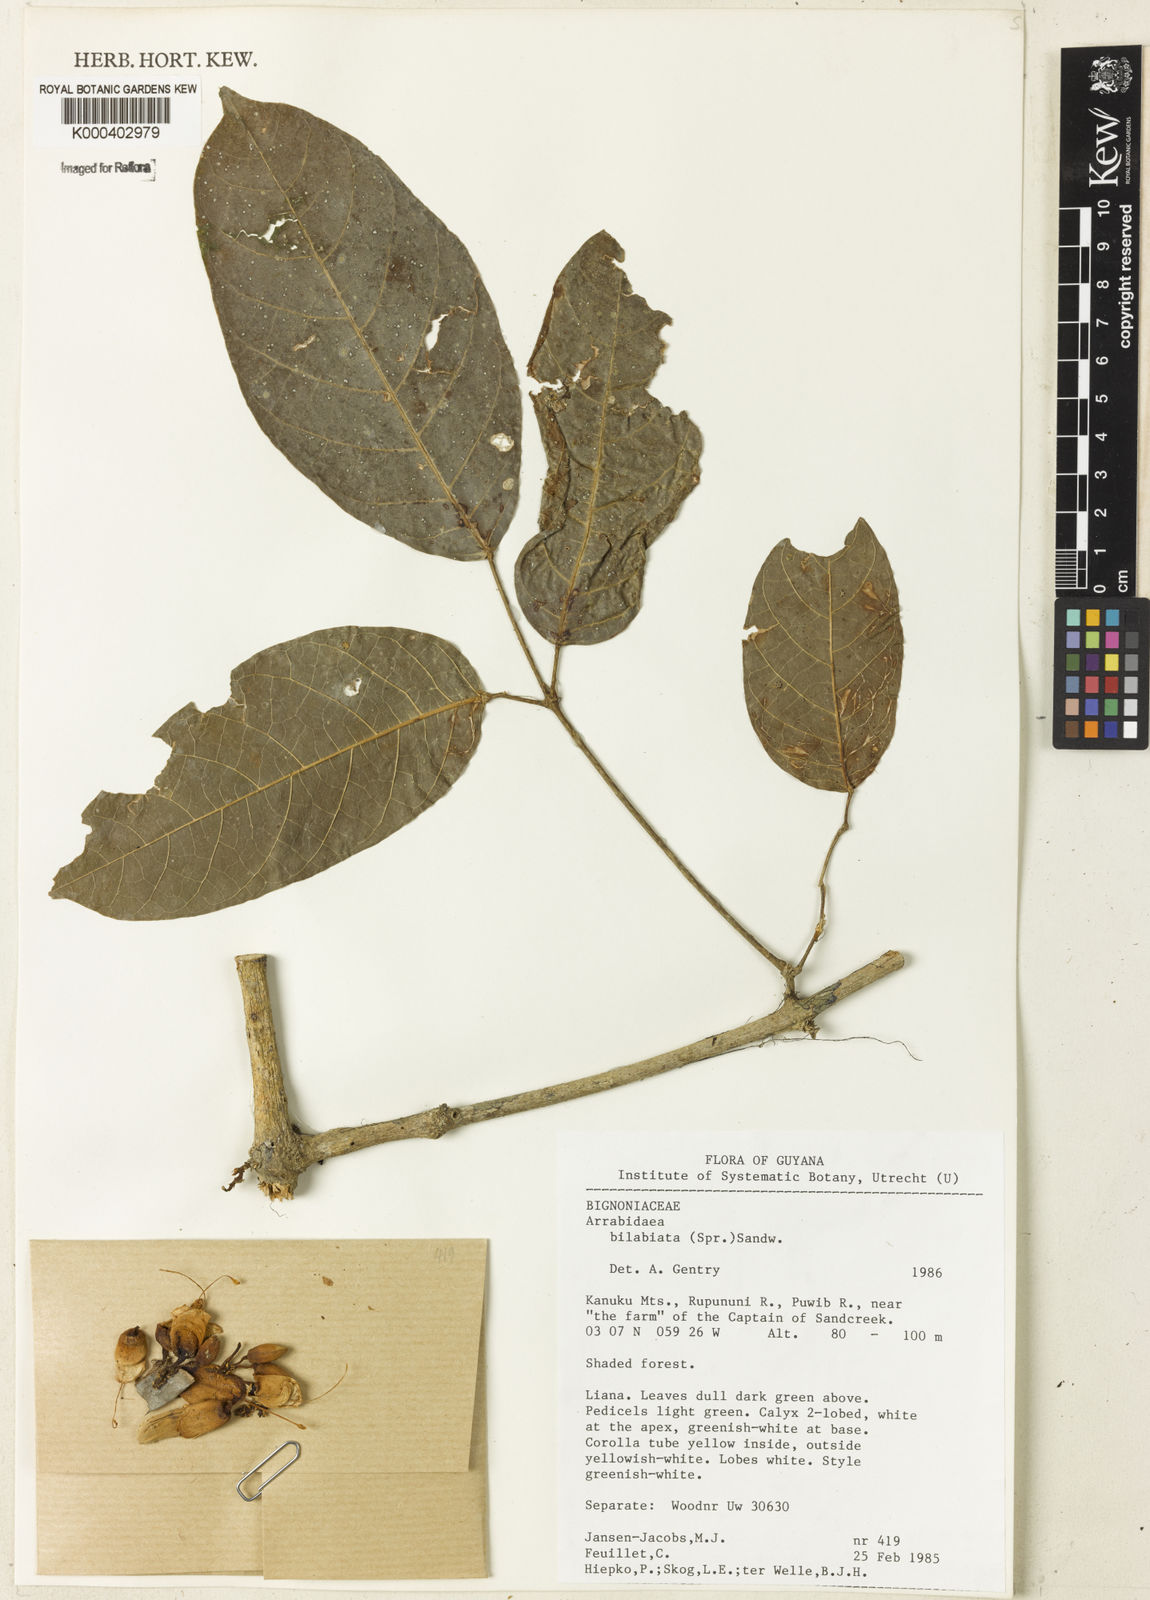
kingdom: Plantae
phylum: Tracheophyta
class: Magnoliopsida
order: Lamiales
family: Bignoniaceae
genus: Tanaecium
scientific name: Tanaecium bilabiatum
